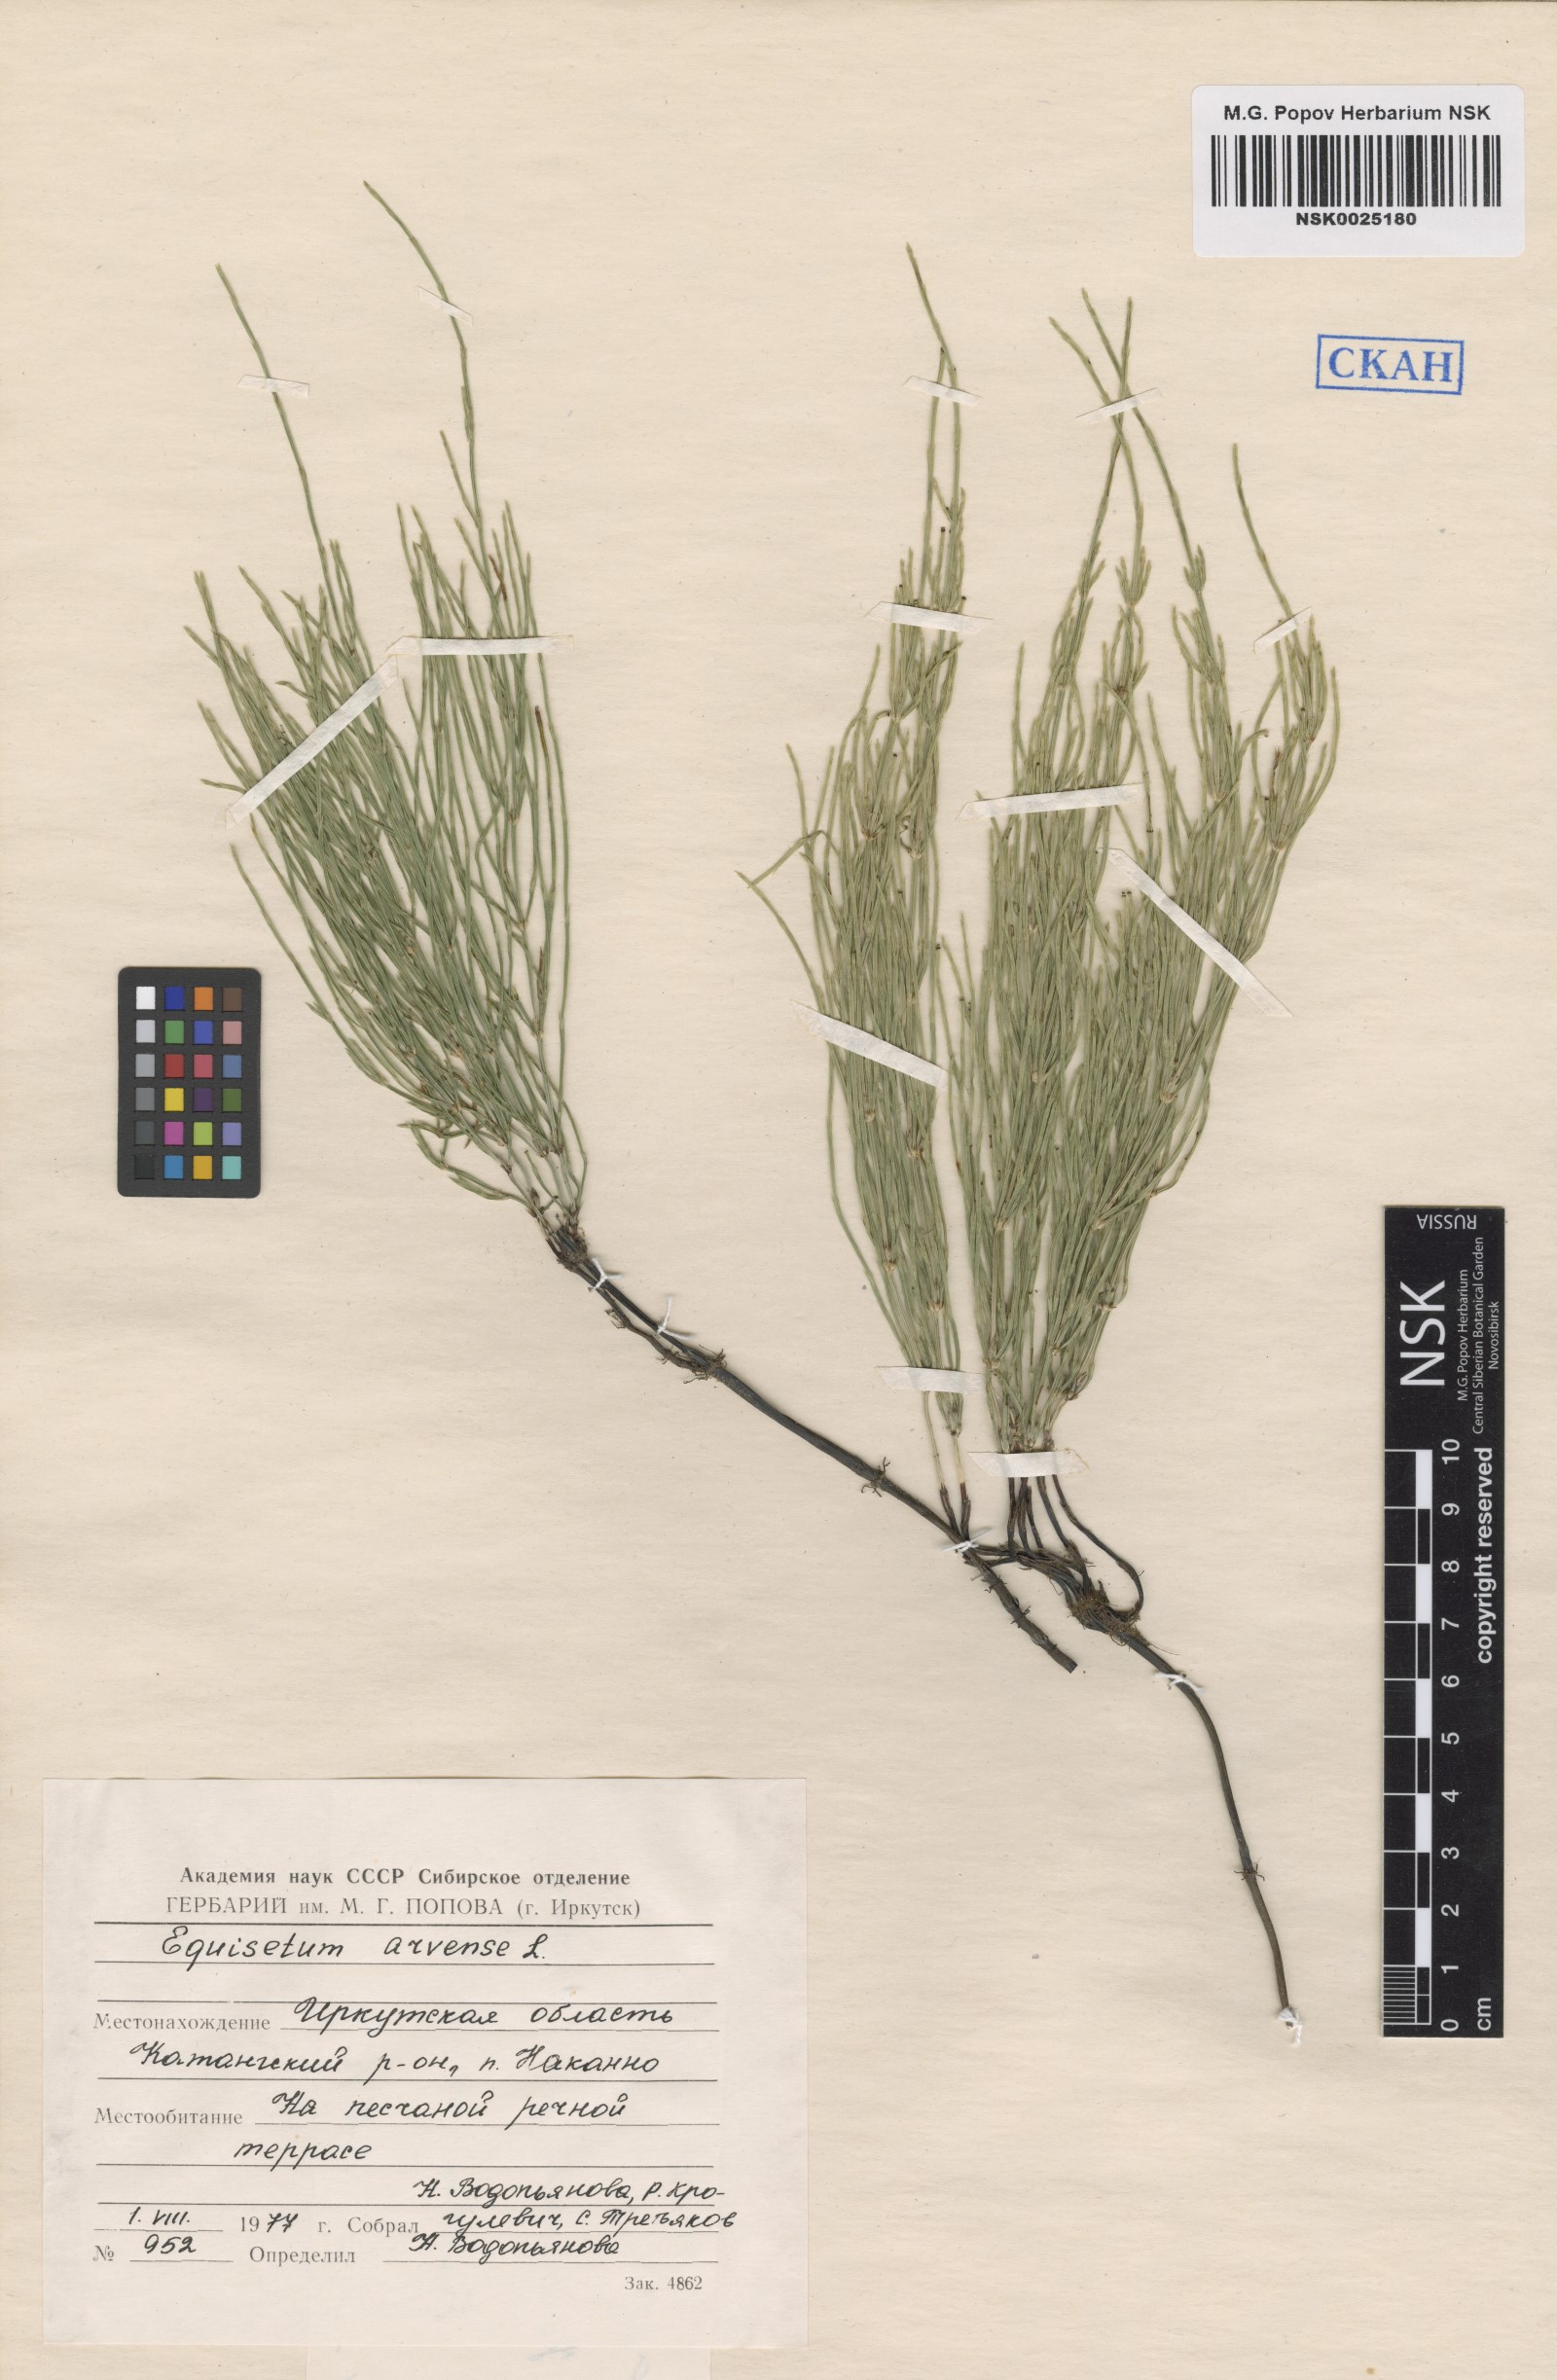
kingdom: Plantae
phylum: Tracheophyta
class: Polypodiopsida
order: Equisetales
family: Equisetaceae
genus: Equisetum
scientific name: Equisetum arvense
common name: Field horsetail
